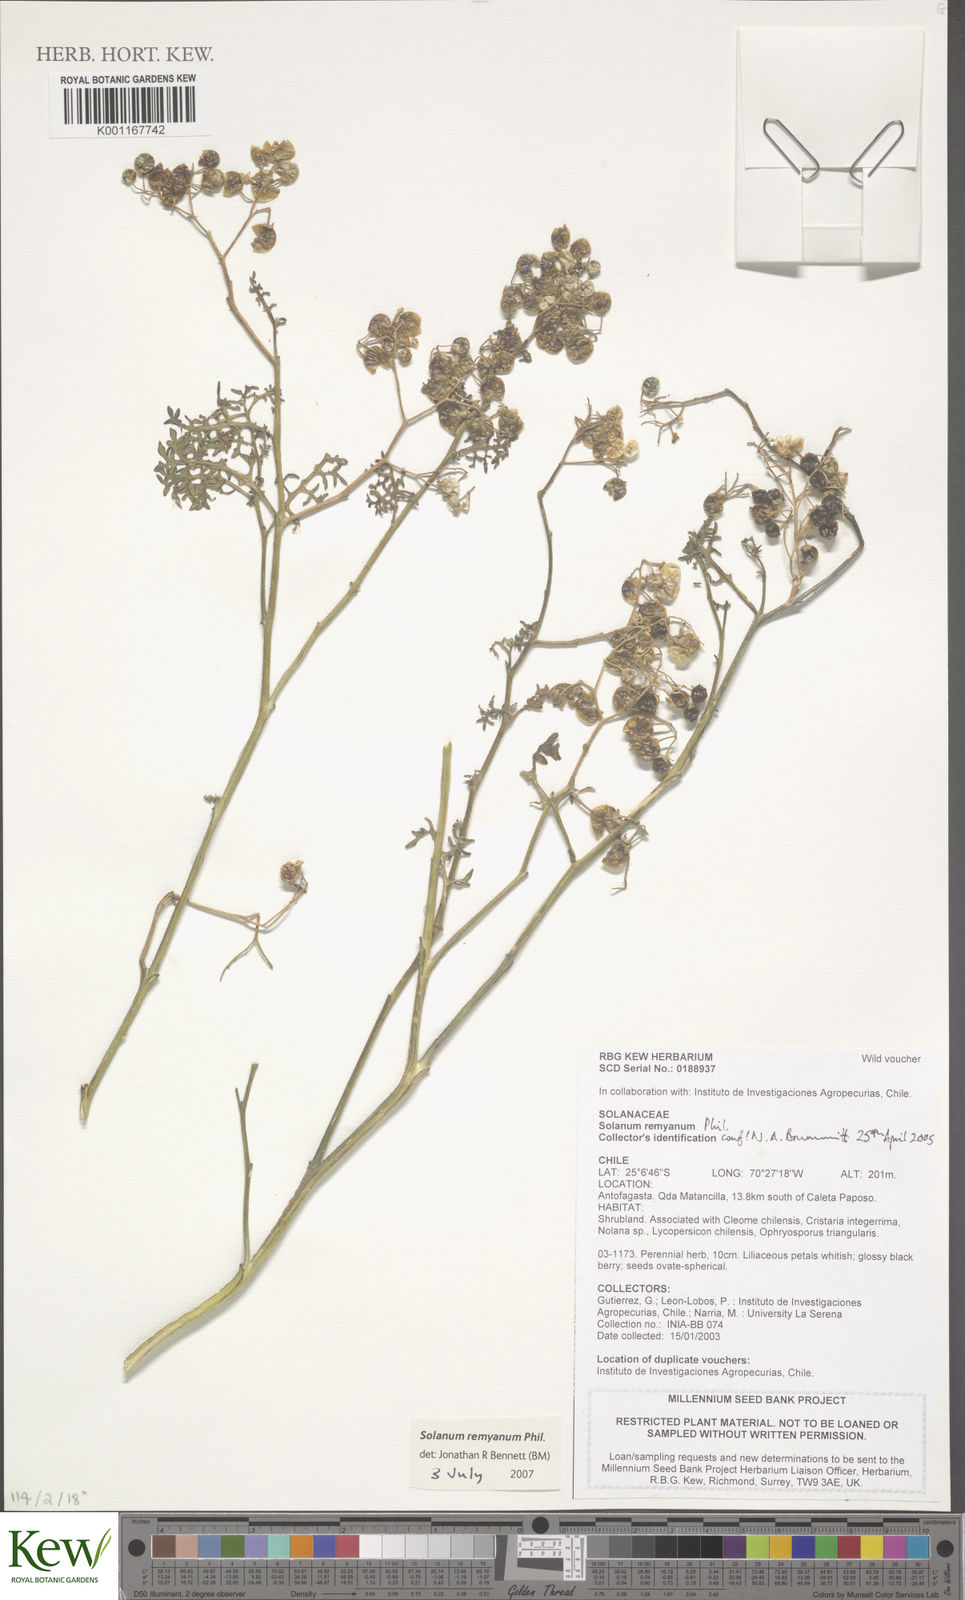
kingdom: Plantae
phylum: Tracheophyta
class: Magnoliopsida
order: Solanales
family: Solanaceae
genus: Solanum
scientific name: Solanum remyanum
